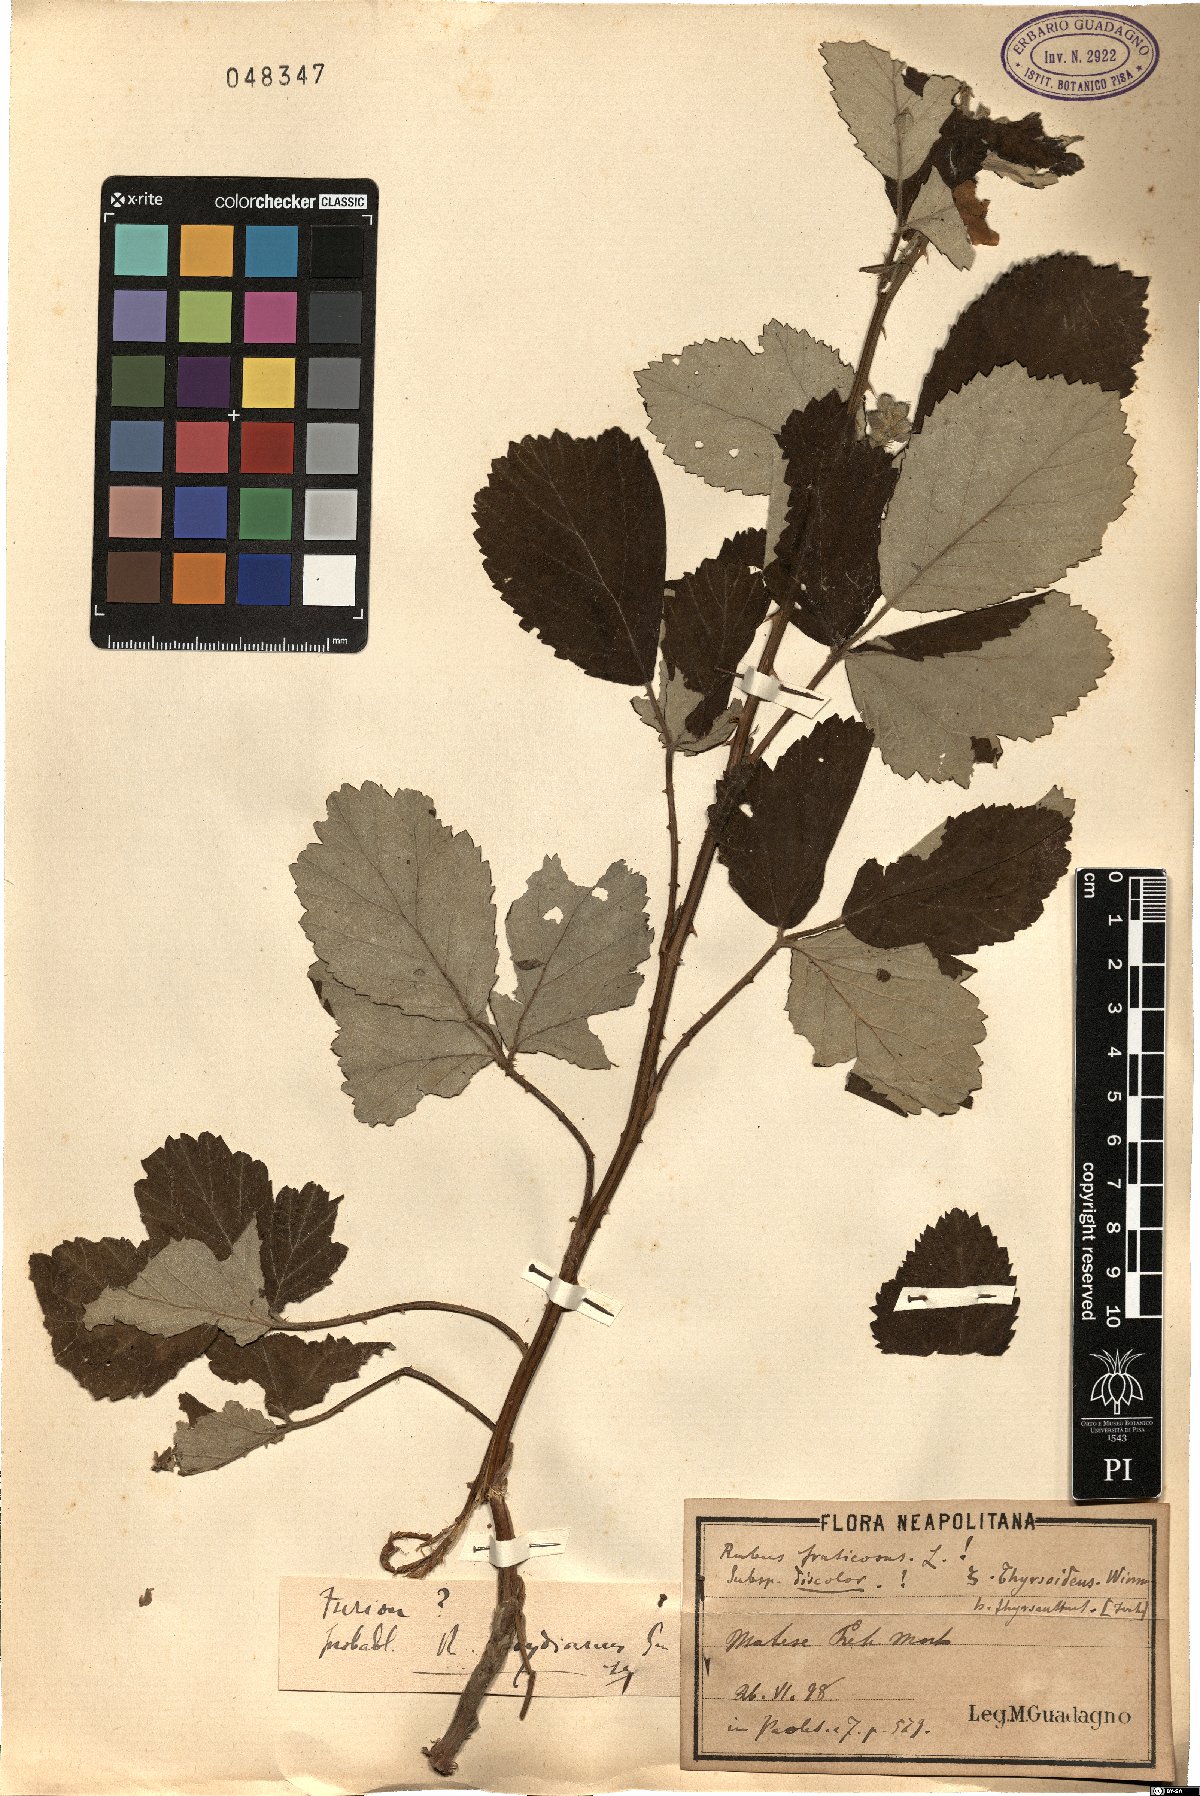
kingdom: Plantae
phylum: Tracheophyta
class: Magnoliopsida
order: Rosales
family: Rosaceae
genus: Rubus
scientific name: Rubus aetnicus
